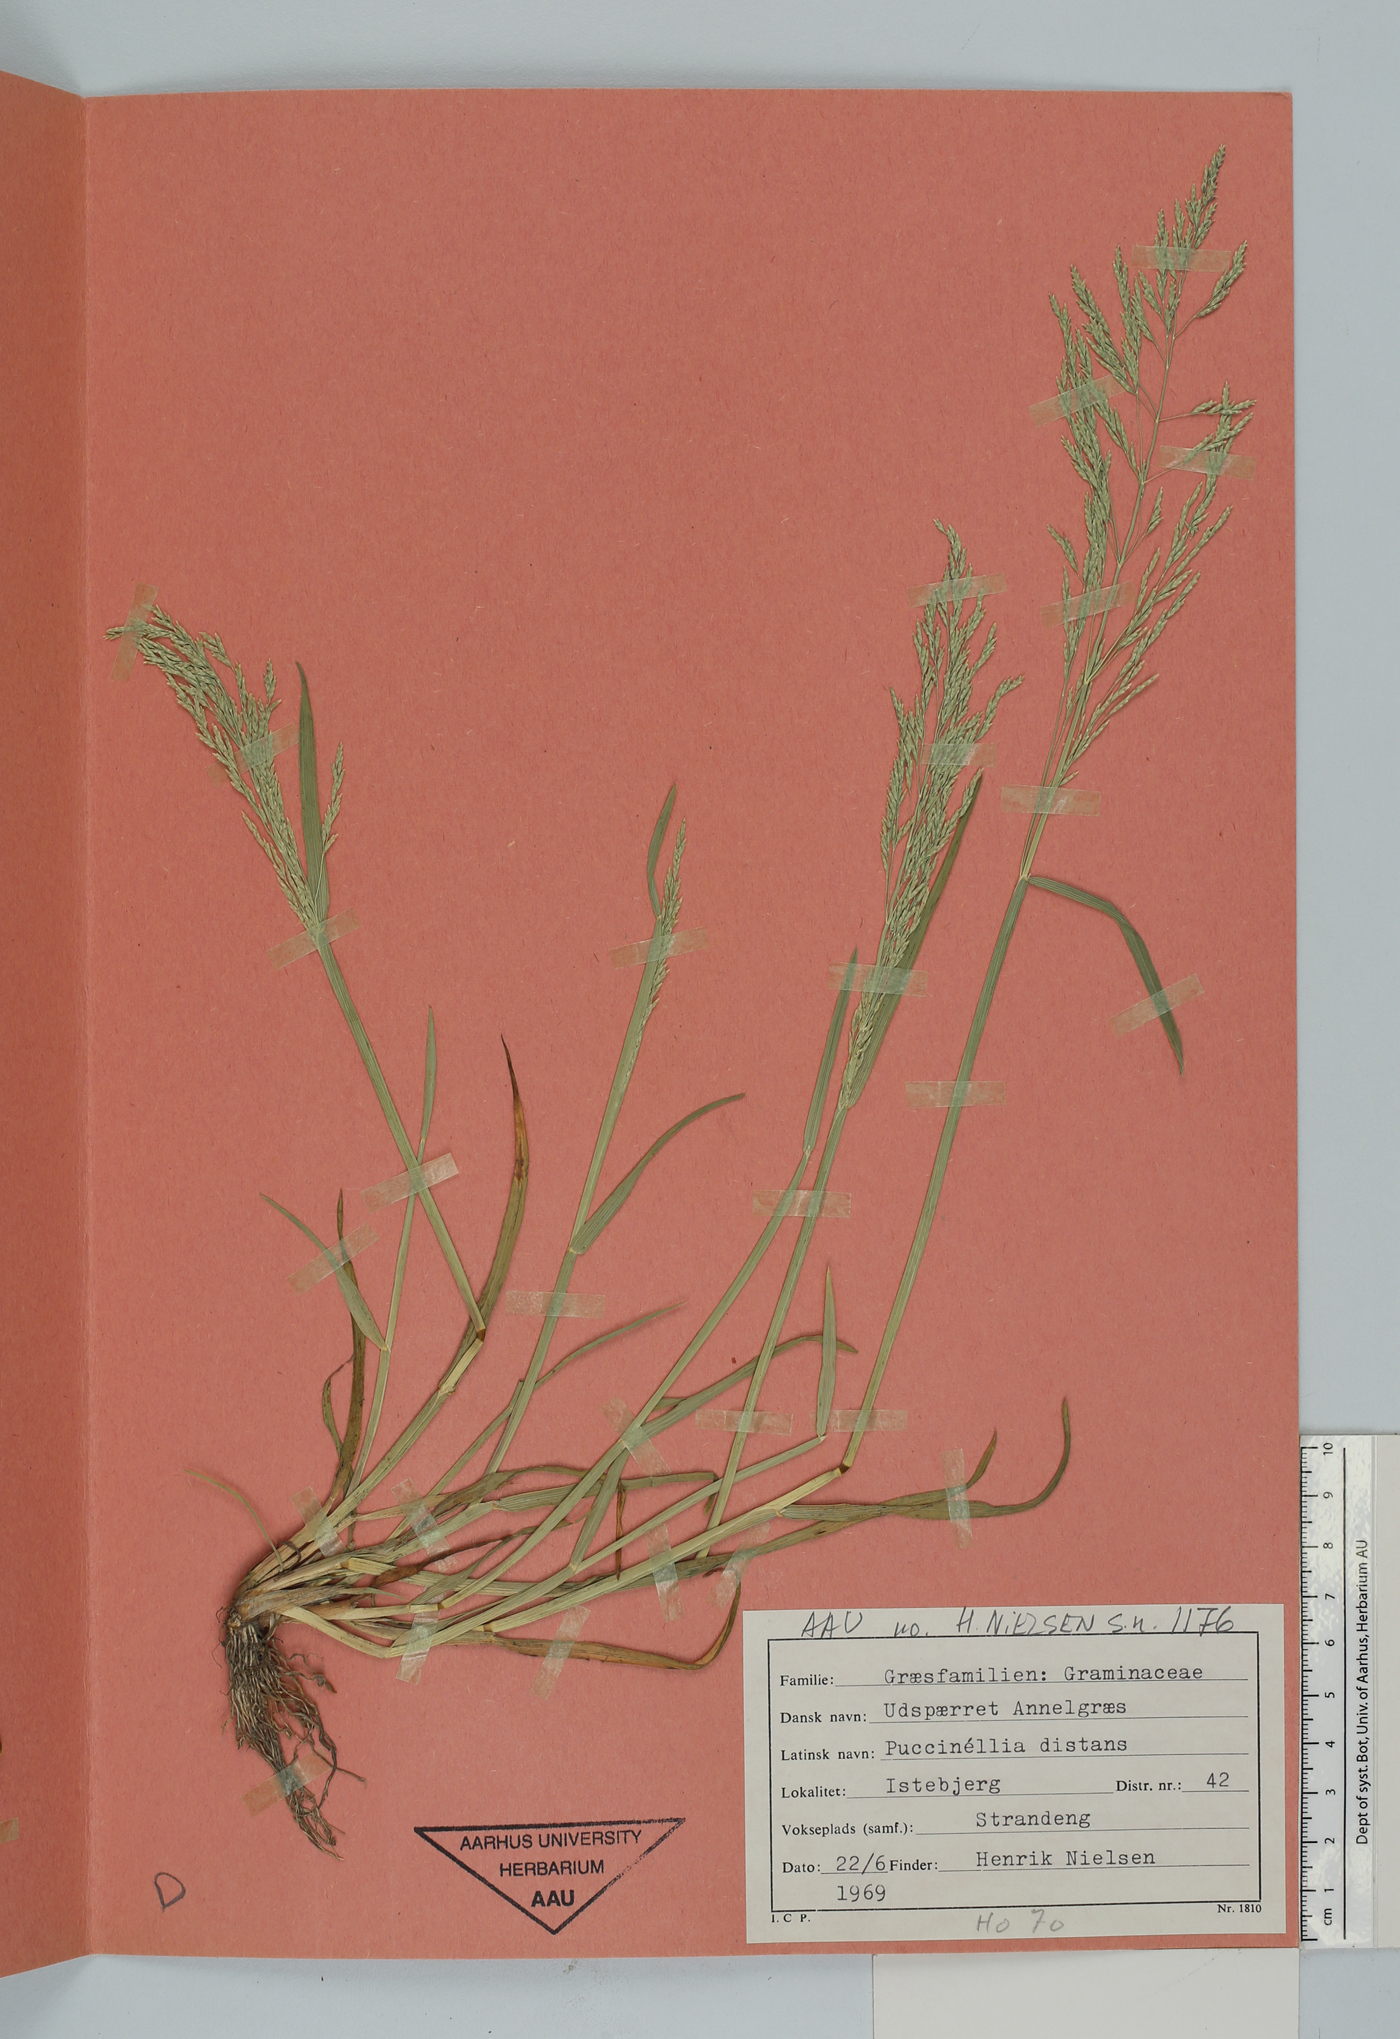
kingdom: Plantae
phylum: Tracheophyta
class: Liliopsida
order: Poales
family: Poaceae
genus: Puccinellia
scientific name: Puccinellia distans
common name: Weeping alkaligrass
